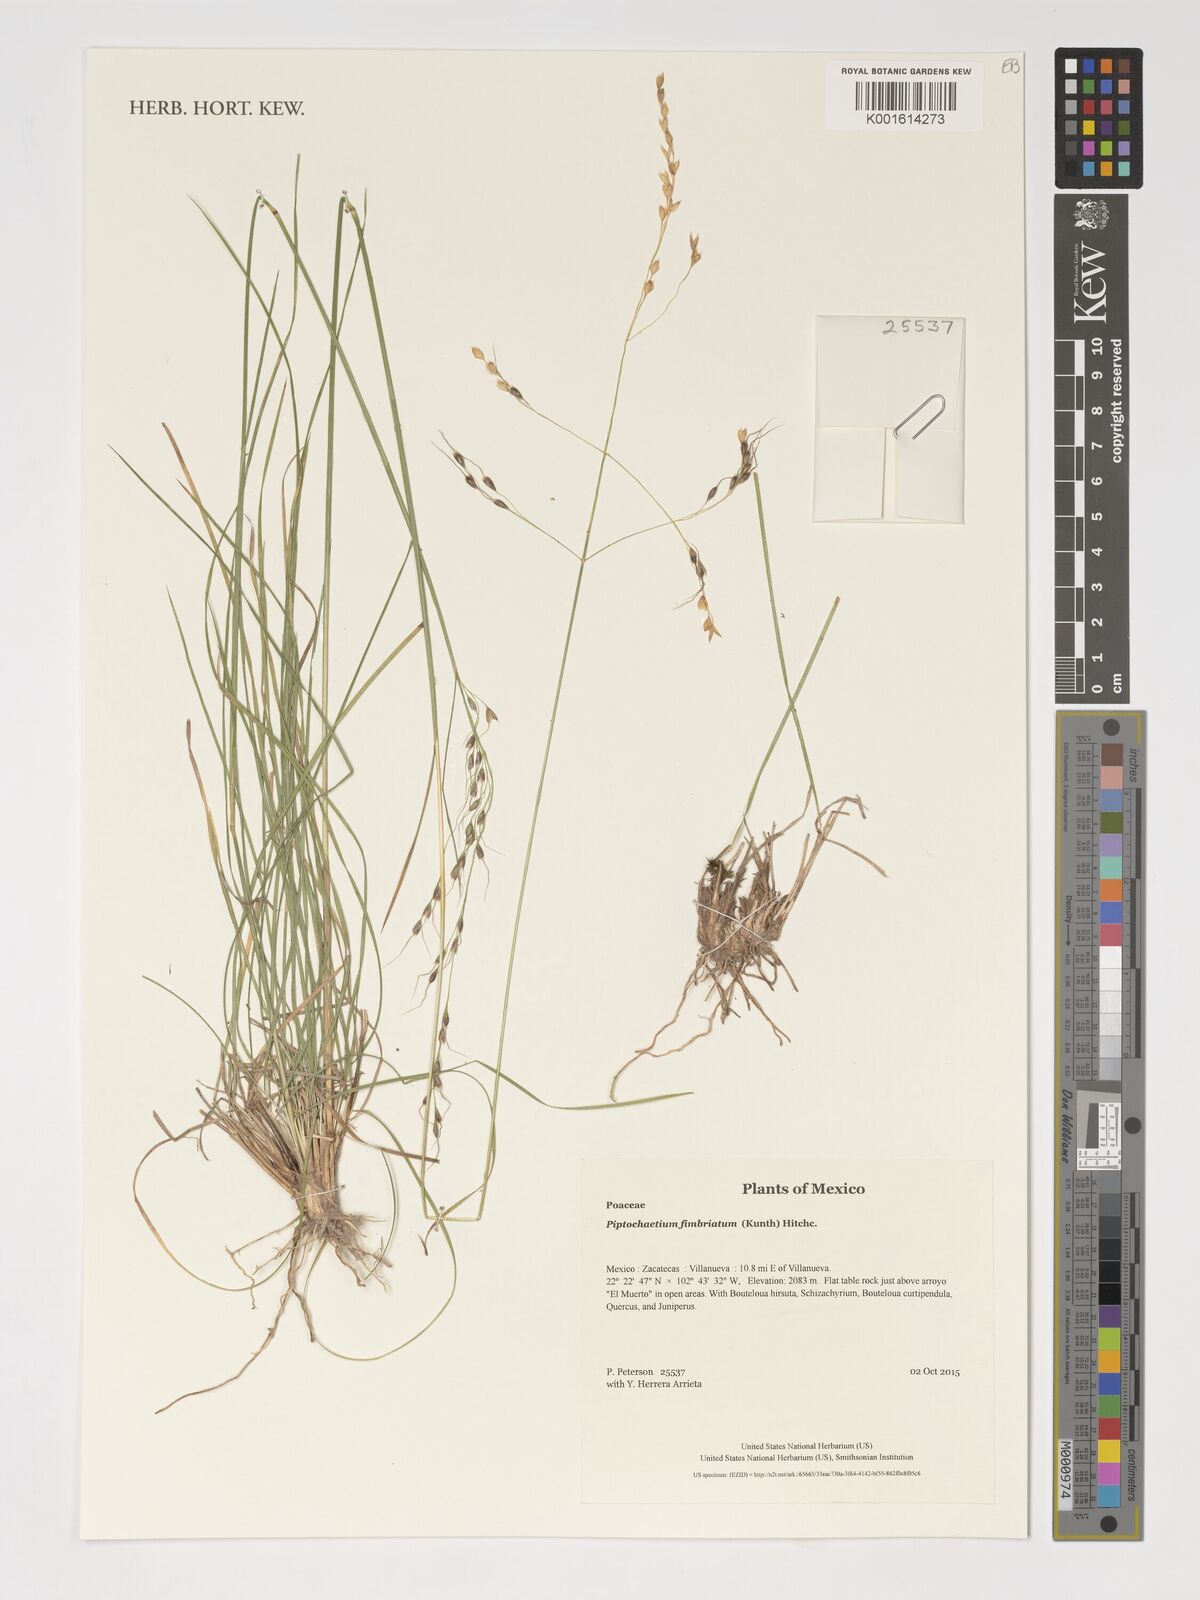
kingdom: Plantae
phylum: Tracheophyta
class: Liliopsida
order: Poales
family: Poaceae
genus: Piptochaetium
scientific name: Piptochaetium fimbriatum
